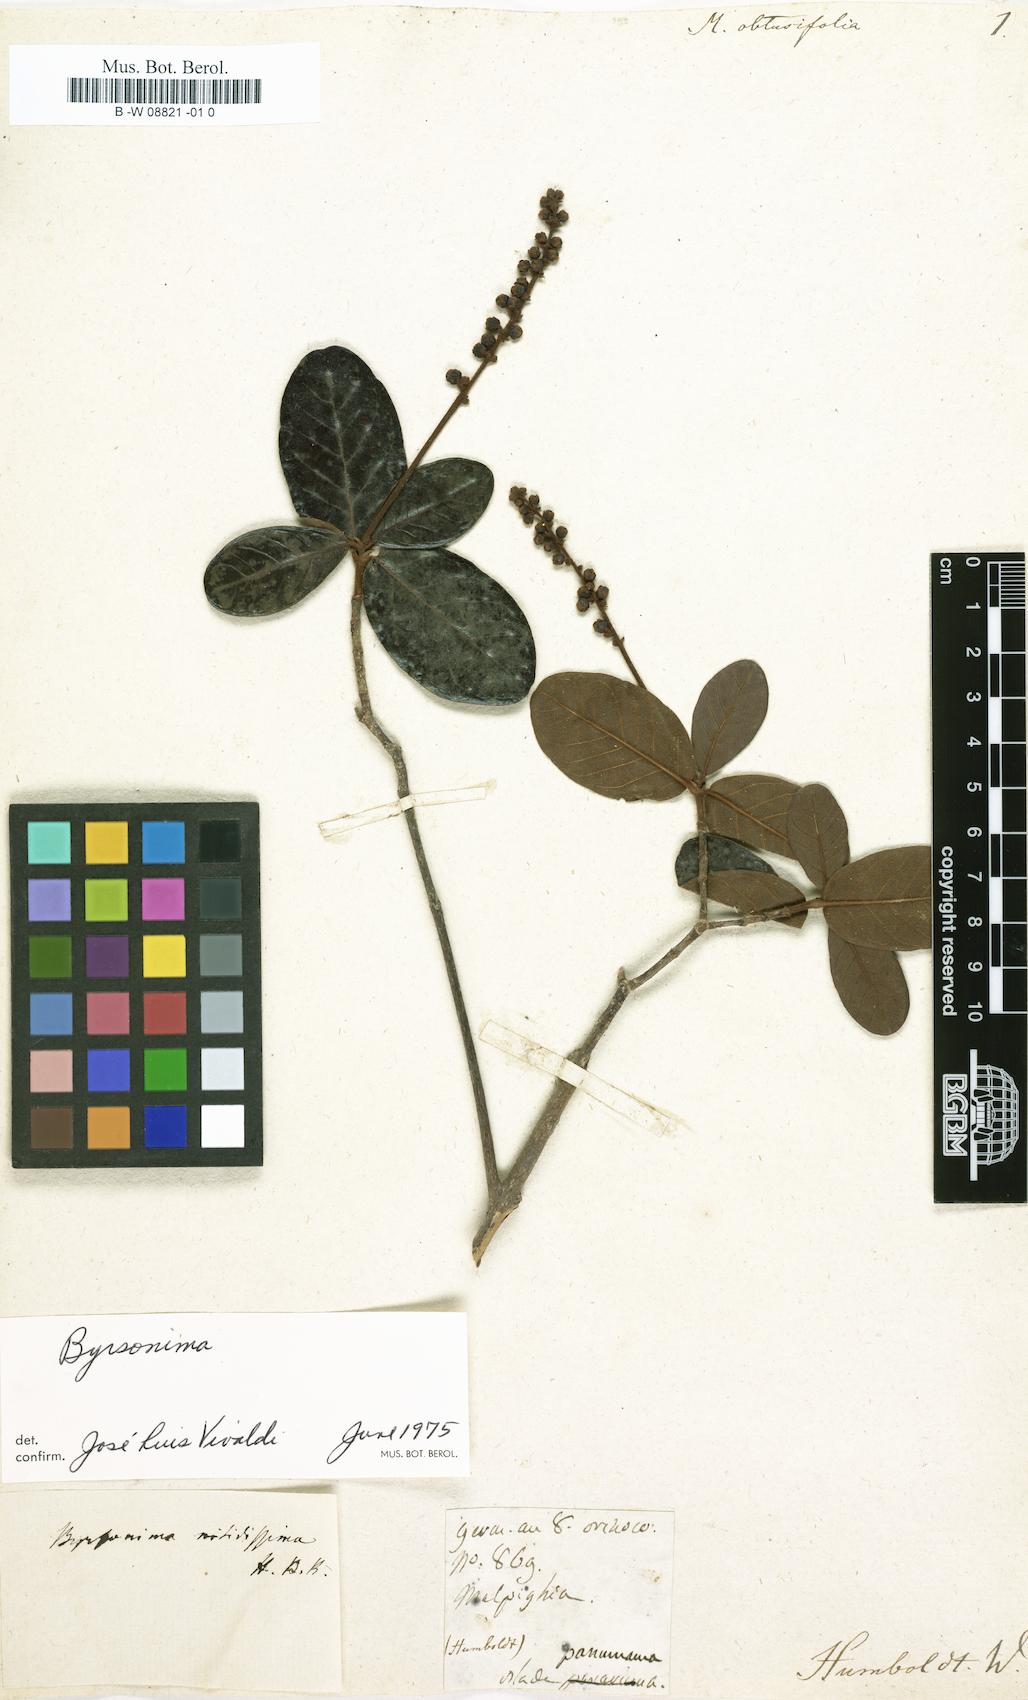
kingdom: Plantae
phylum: Tracheophyta
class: Magnoliopsida
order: Malpighiales
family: Malpighiaceae
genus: Malpighia
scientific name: Malpighia obtusifolia
